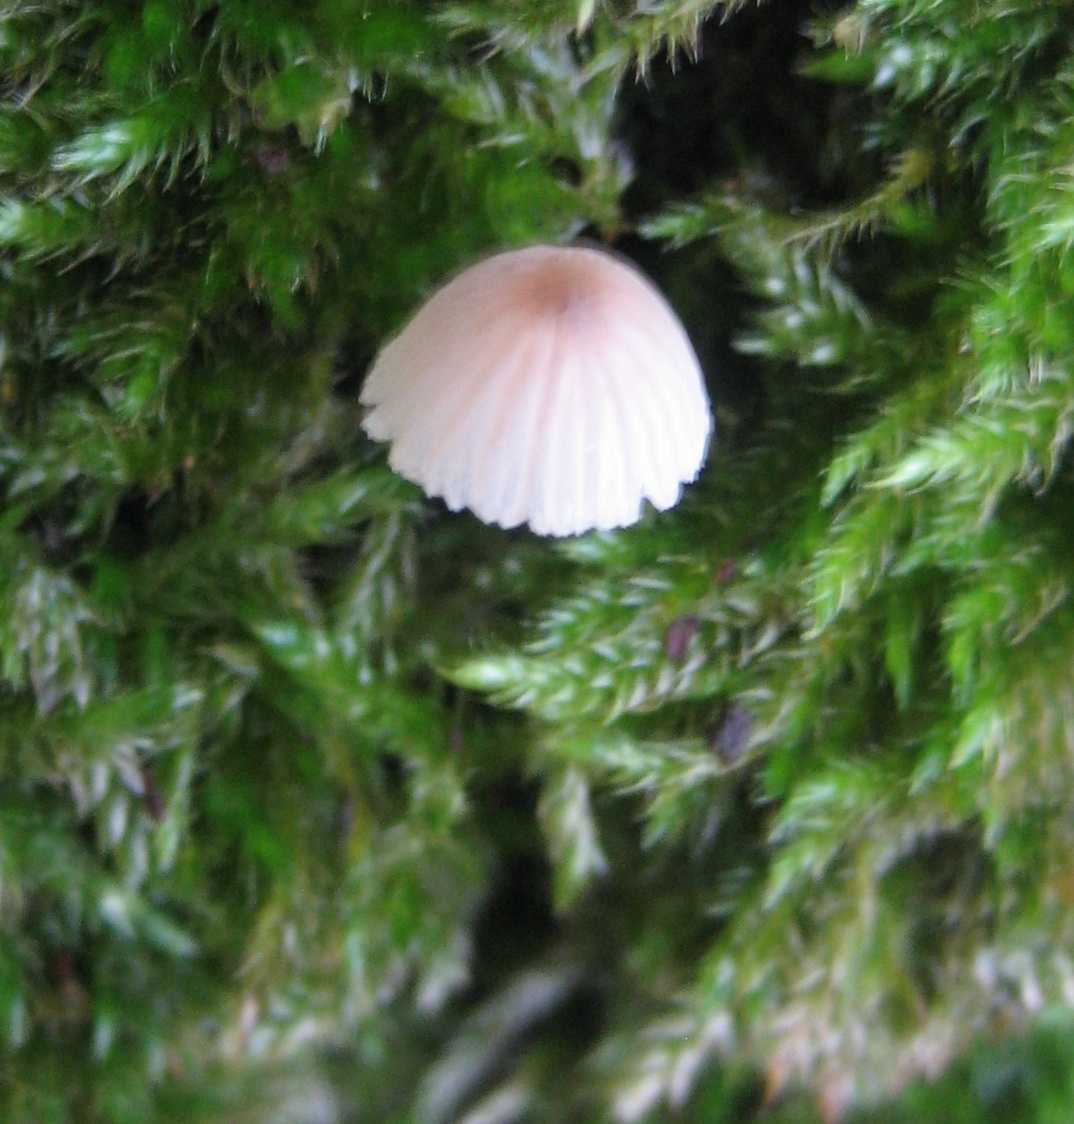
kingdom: Fungi
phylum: Basidiomycota
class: Agaricomycetes
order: Agaricales
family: Mycenaceae
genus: Mycena
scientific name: Mycena
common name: huesvamp
